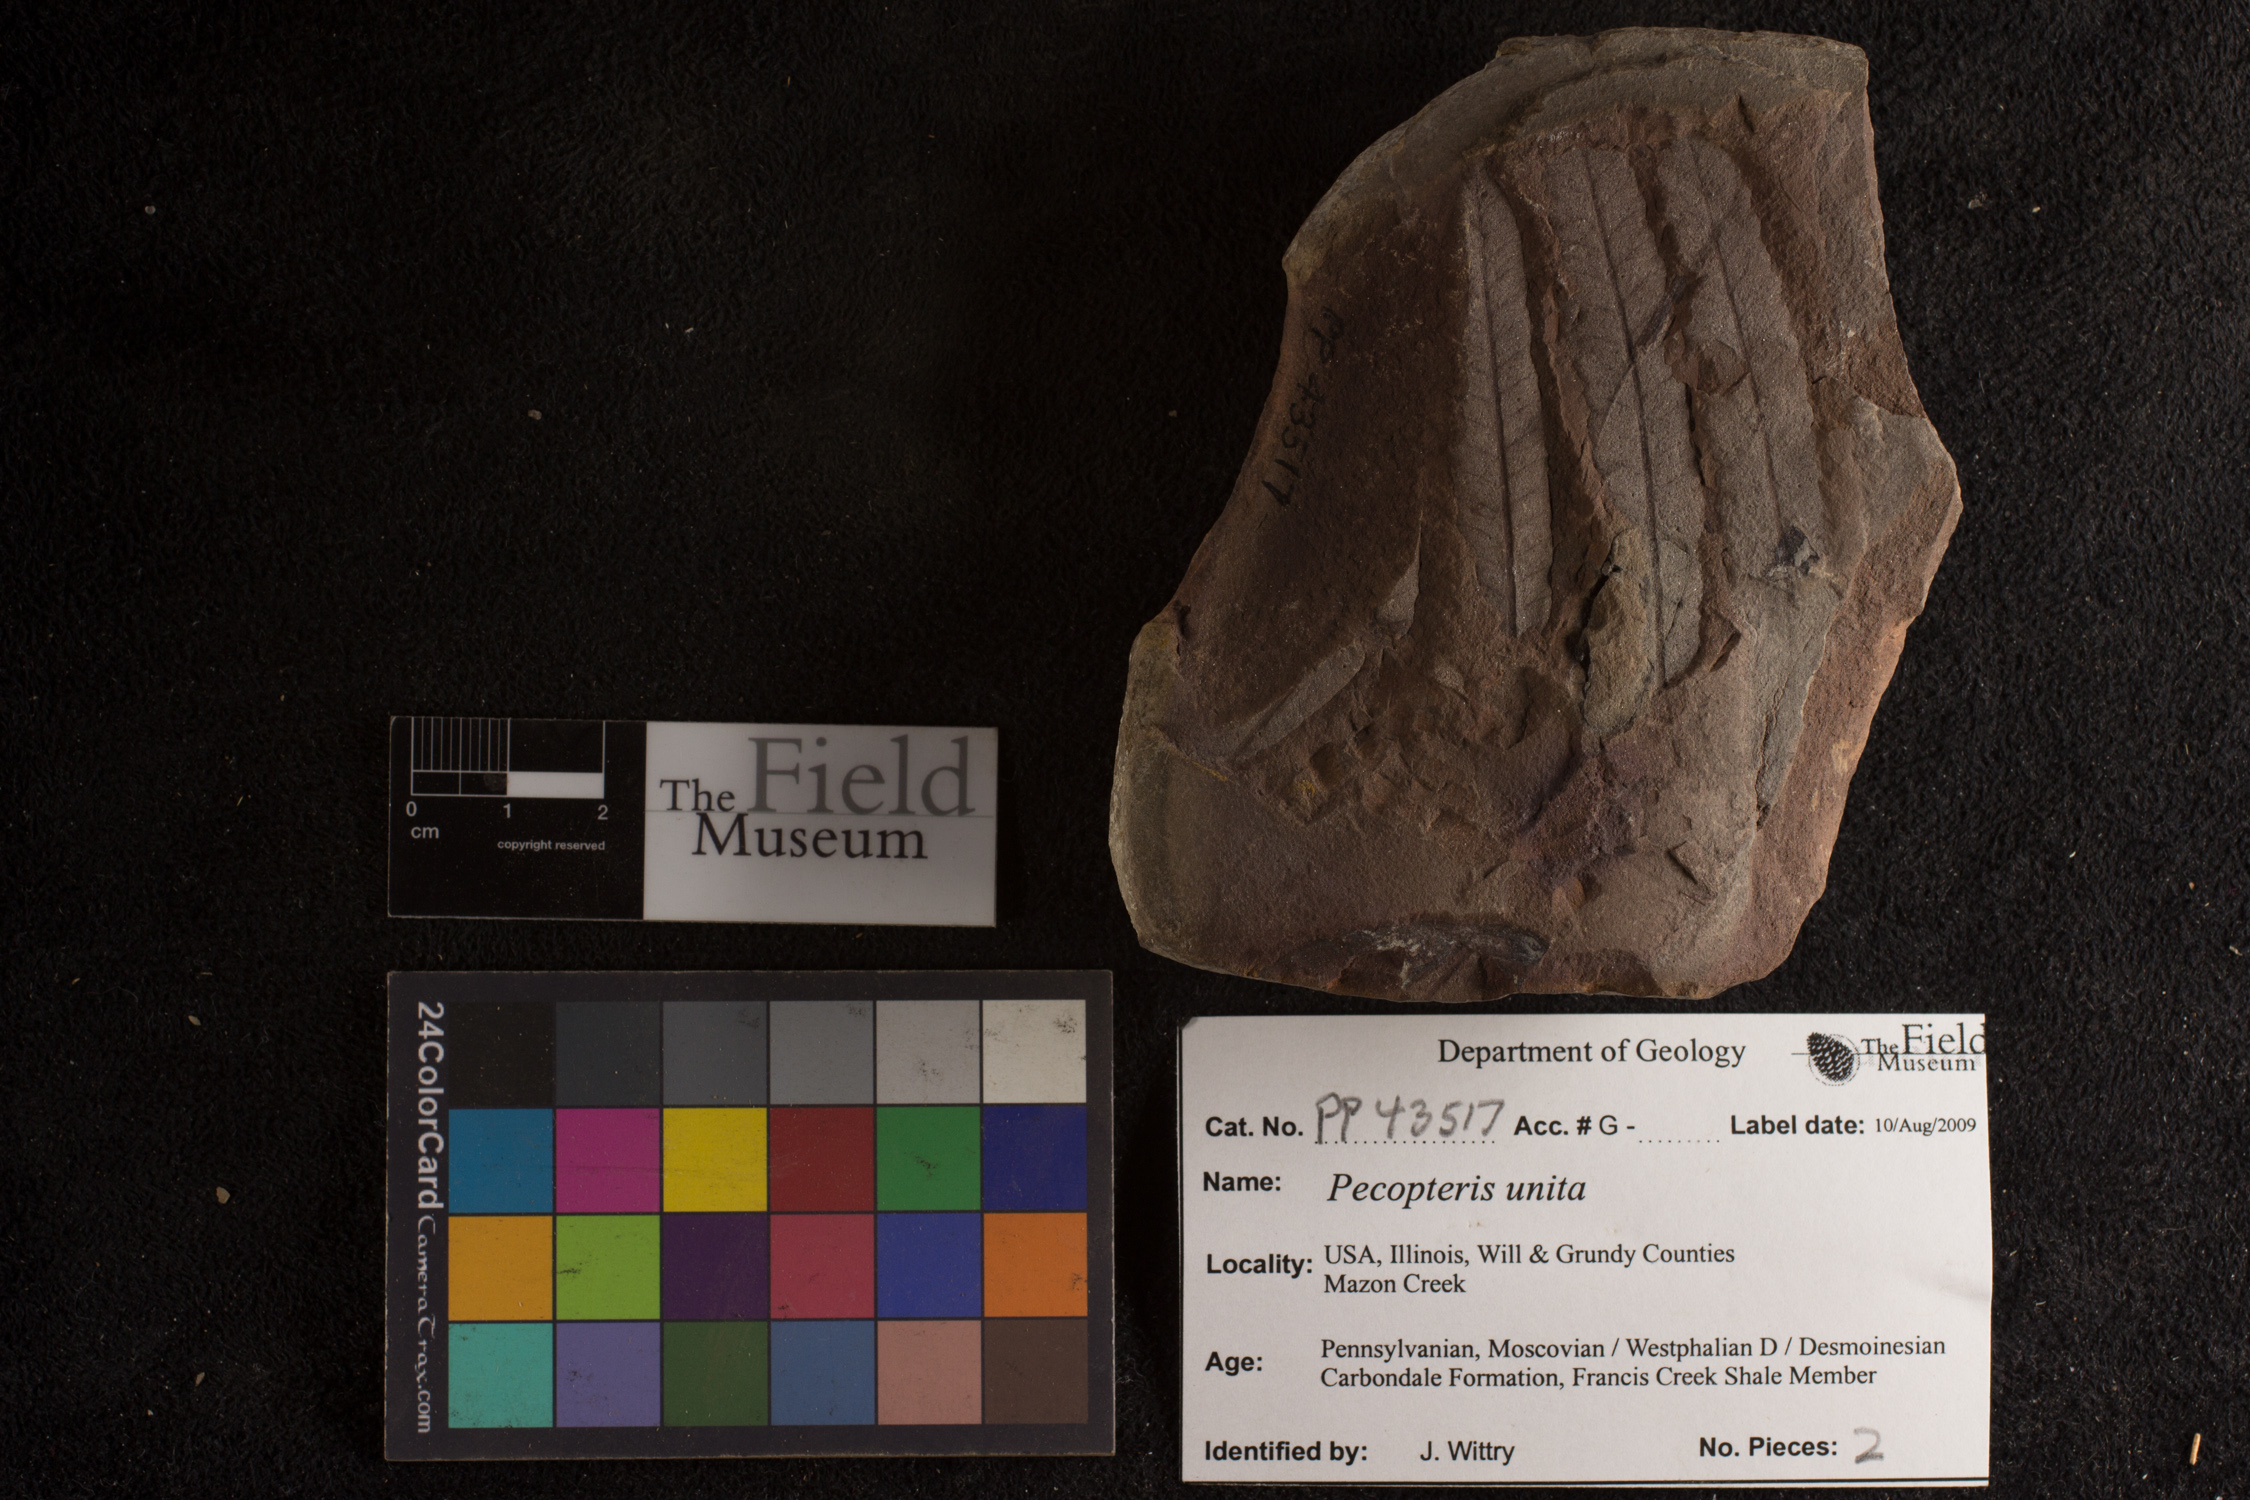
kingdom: Plantae
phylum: Tracheophyta
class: Polypodiopsida
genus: Diplazites
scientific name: Diplazites
